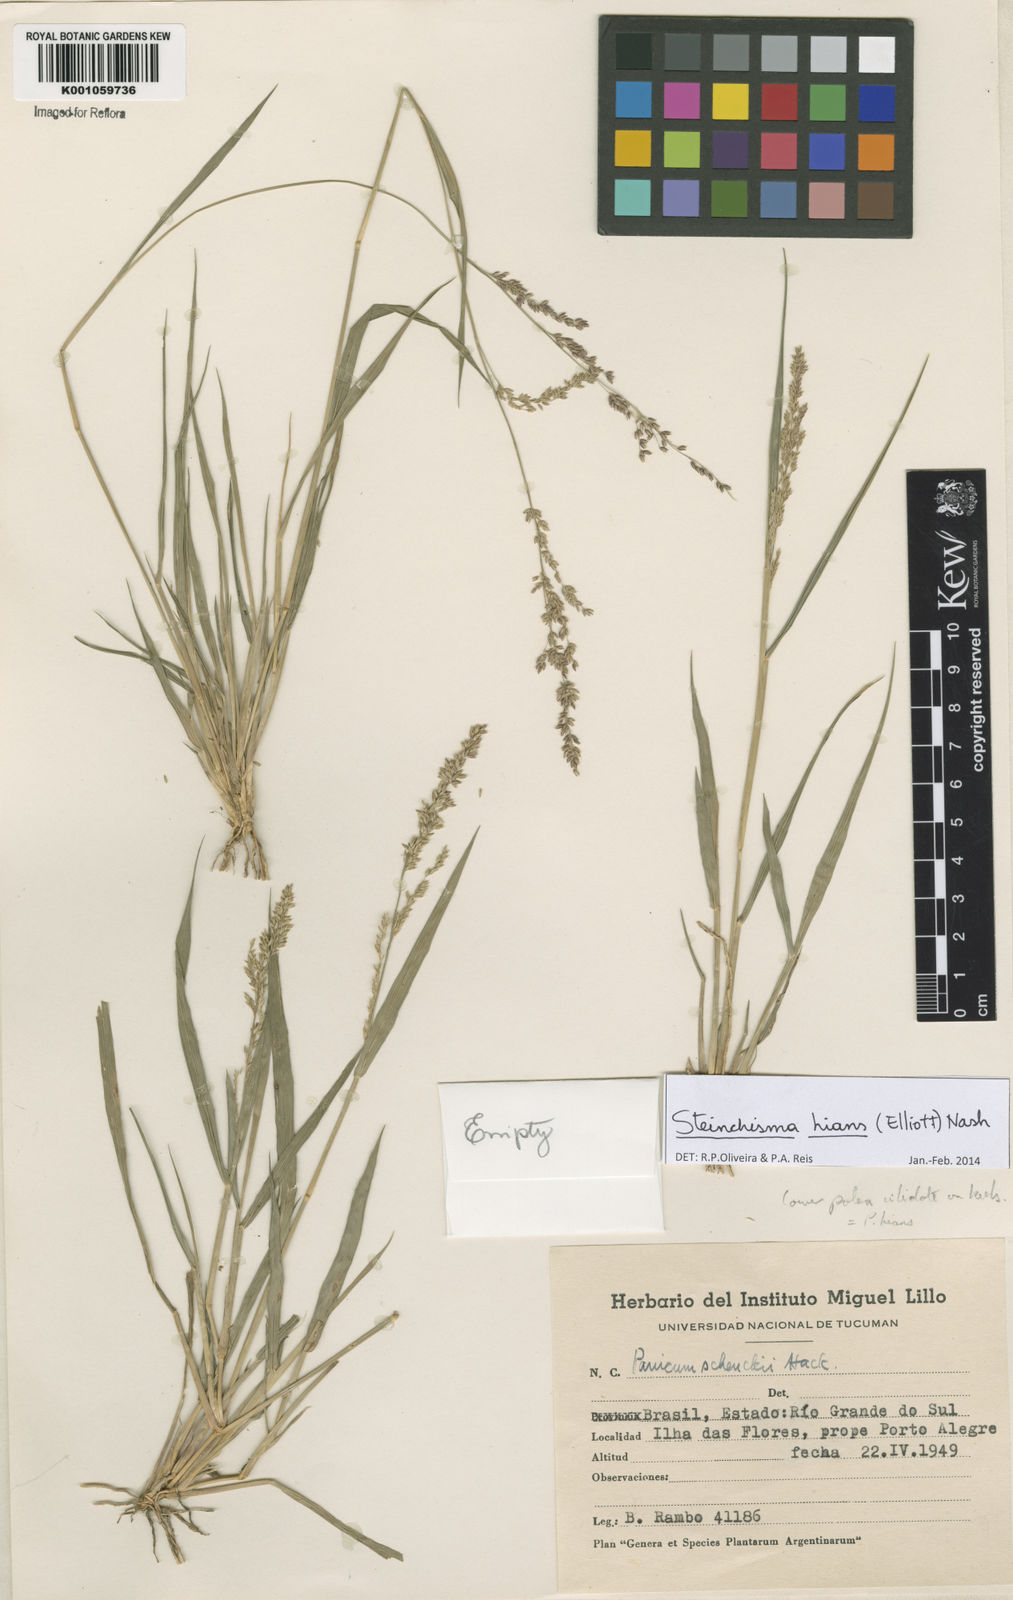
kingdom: Plantae
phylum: Tracheophyta
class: Liliopsida
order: Poales
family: Poaceae
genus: Steinchisma
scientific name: Steinchisma hians
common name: Gaping panic grass
